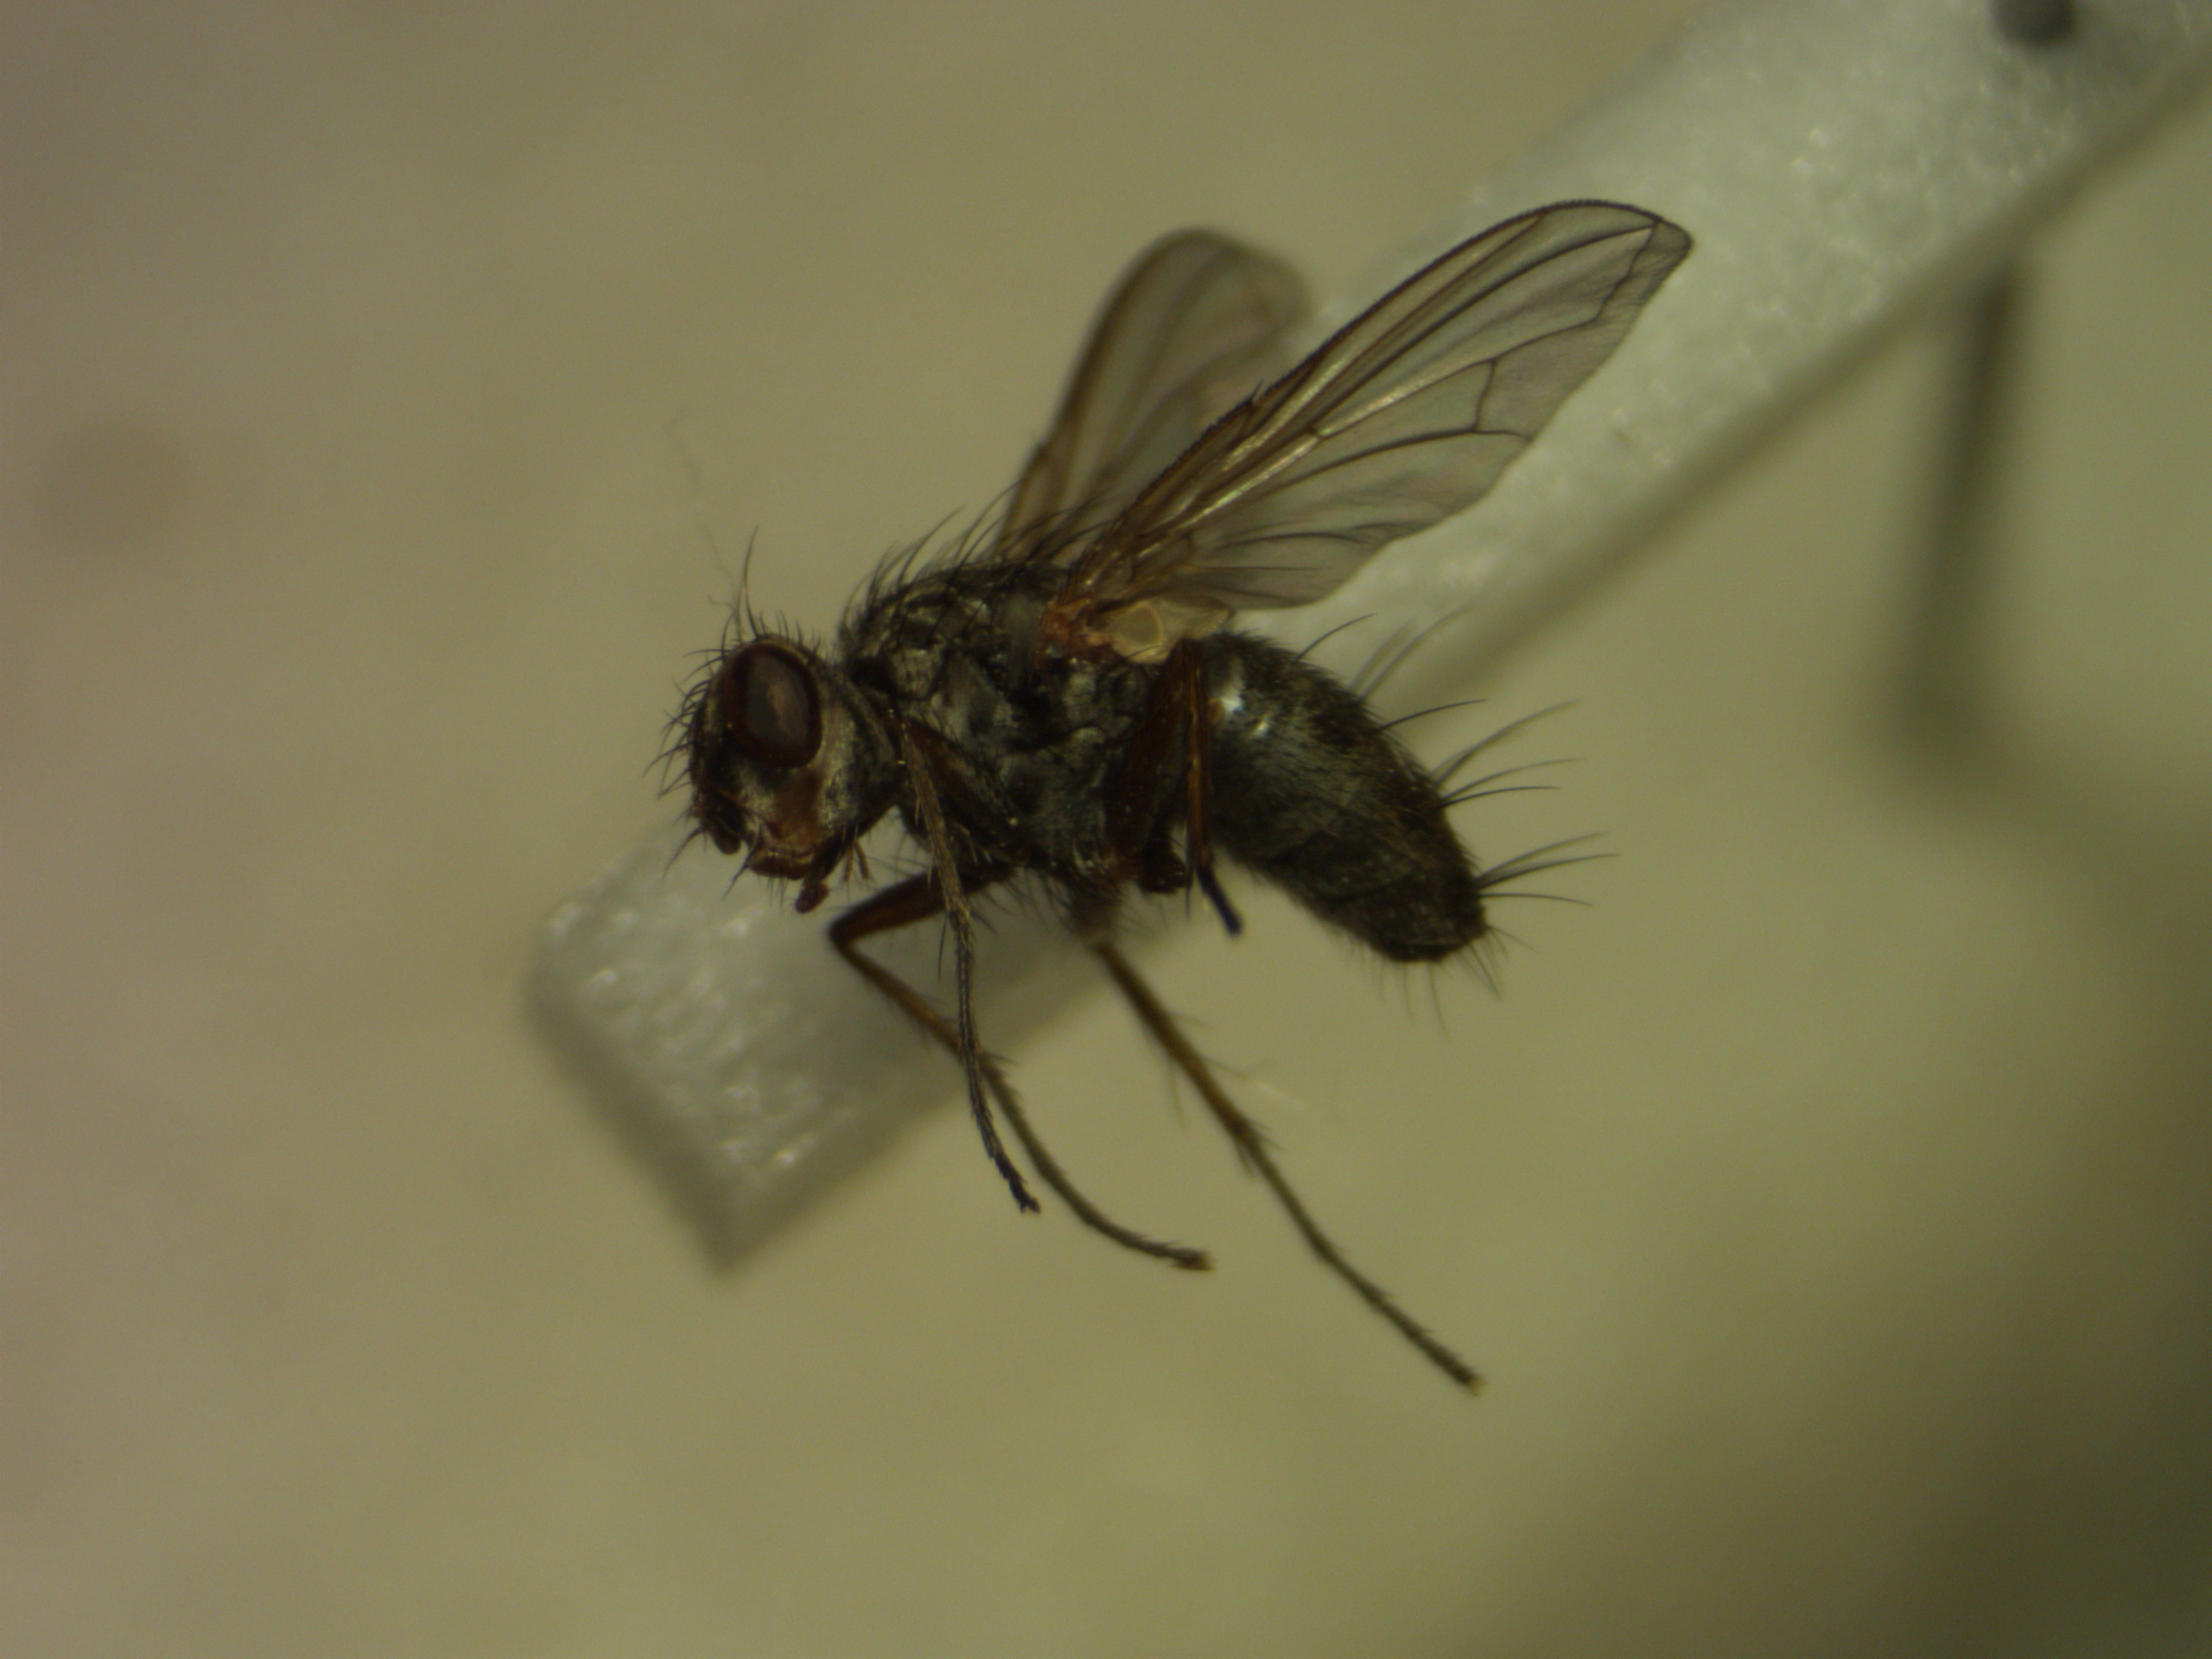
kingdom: Animalia
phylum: Arthropoda
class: Insecta
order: Diptera
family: Tachinidae
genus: Dinera
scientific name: Dinera grisescens
